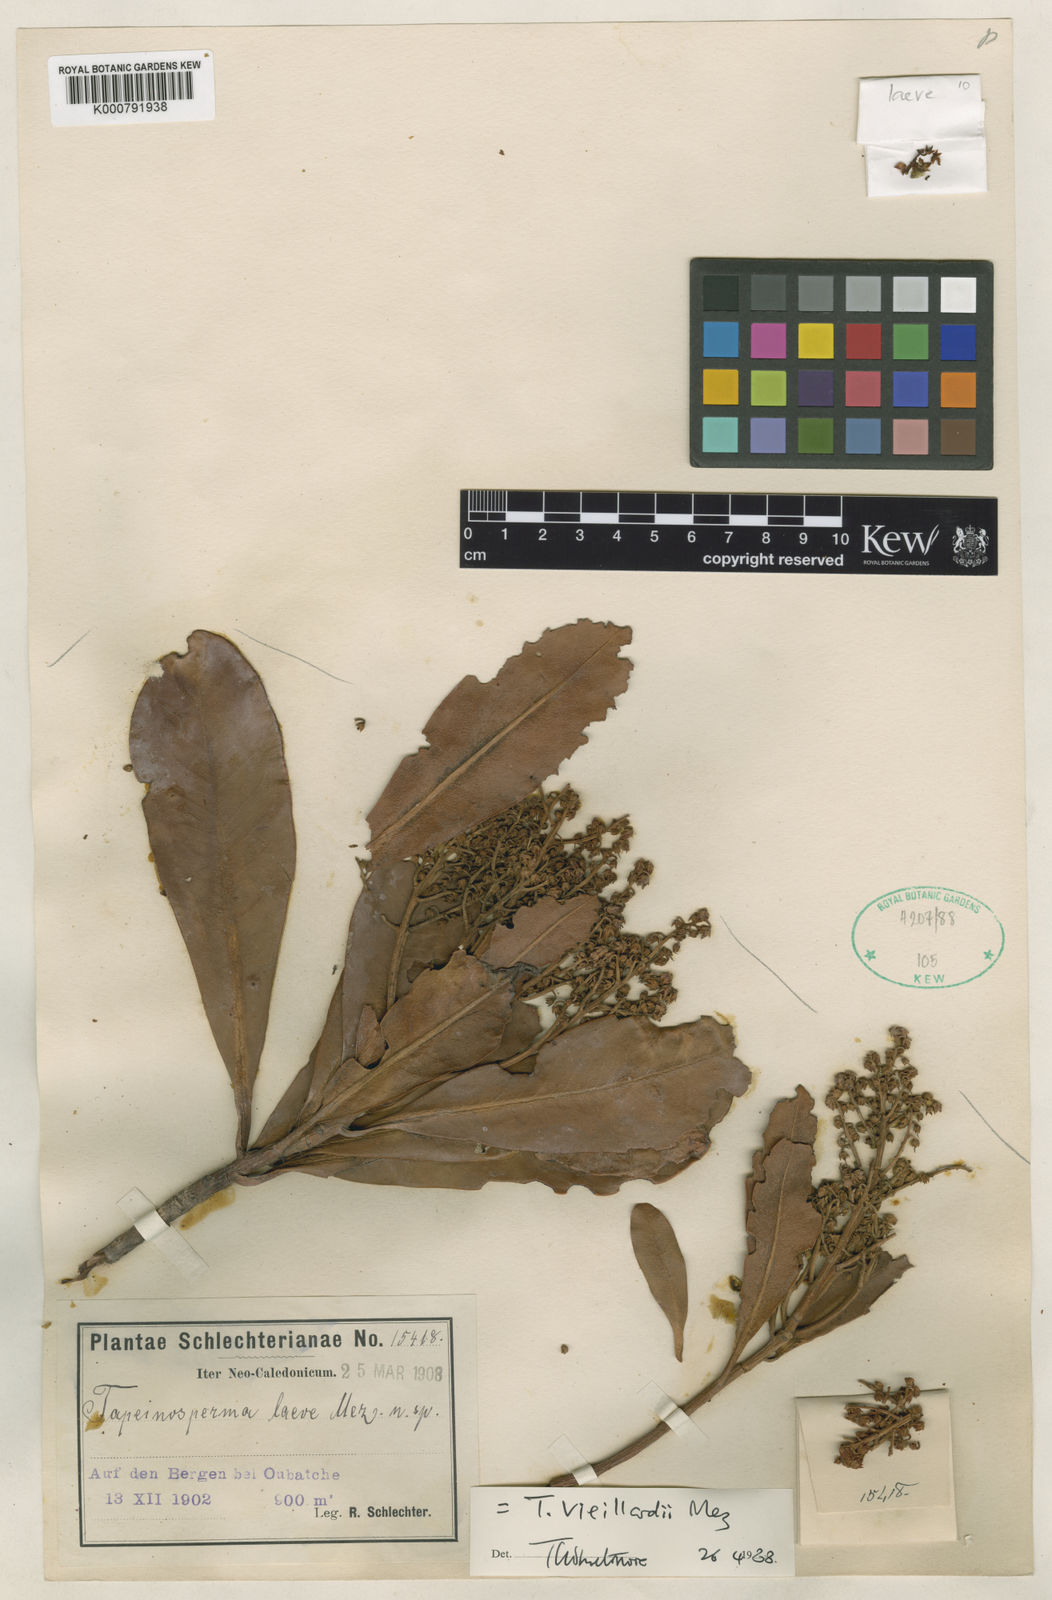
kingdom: Plantae
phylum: Tracheophyta
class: Magnoliopsida
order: Ericales
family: Primulaceae
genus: Tapeinosperma
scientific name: Tapeinosperma vieillardii
